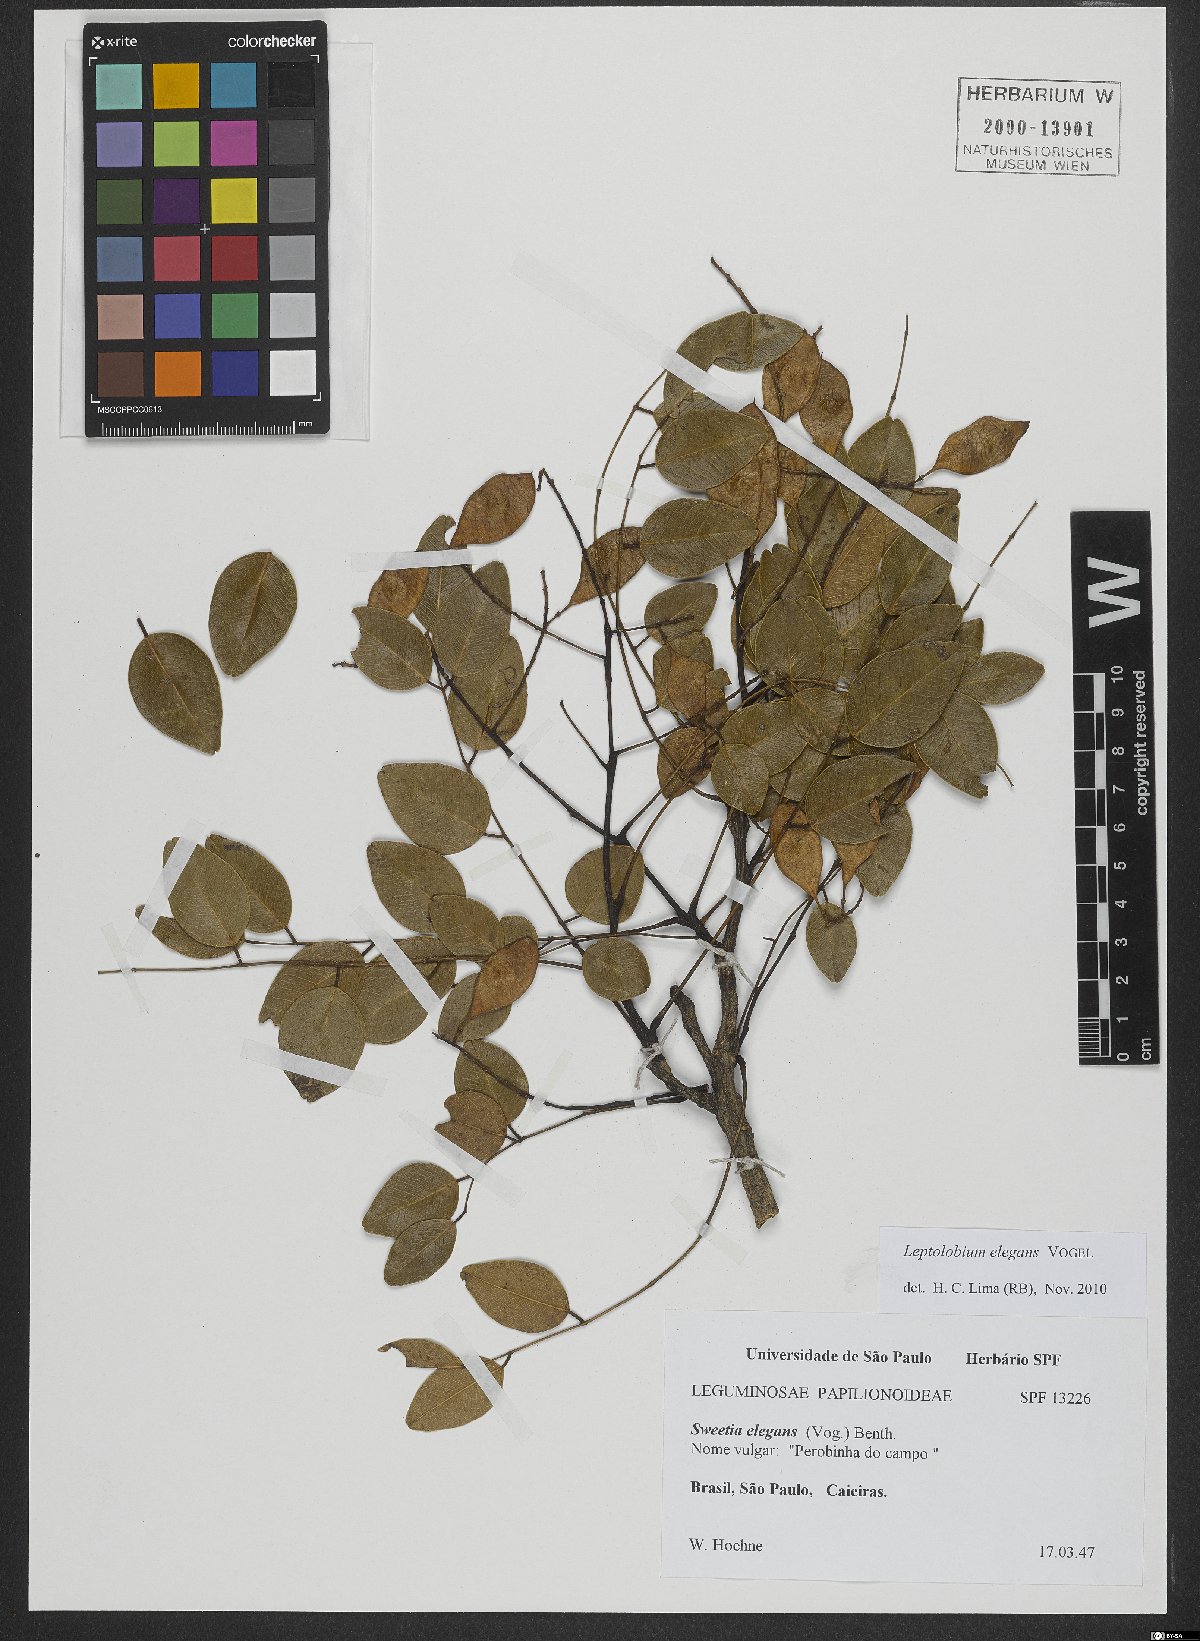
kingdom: Plantae
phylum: Tracheophyta
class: Magnoliopsida
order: Fabales
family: Fabaceae
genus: Leptolobium
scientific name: Leptolobium elegans
